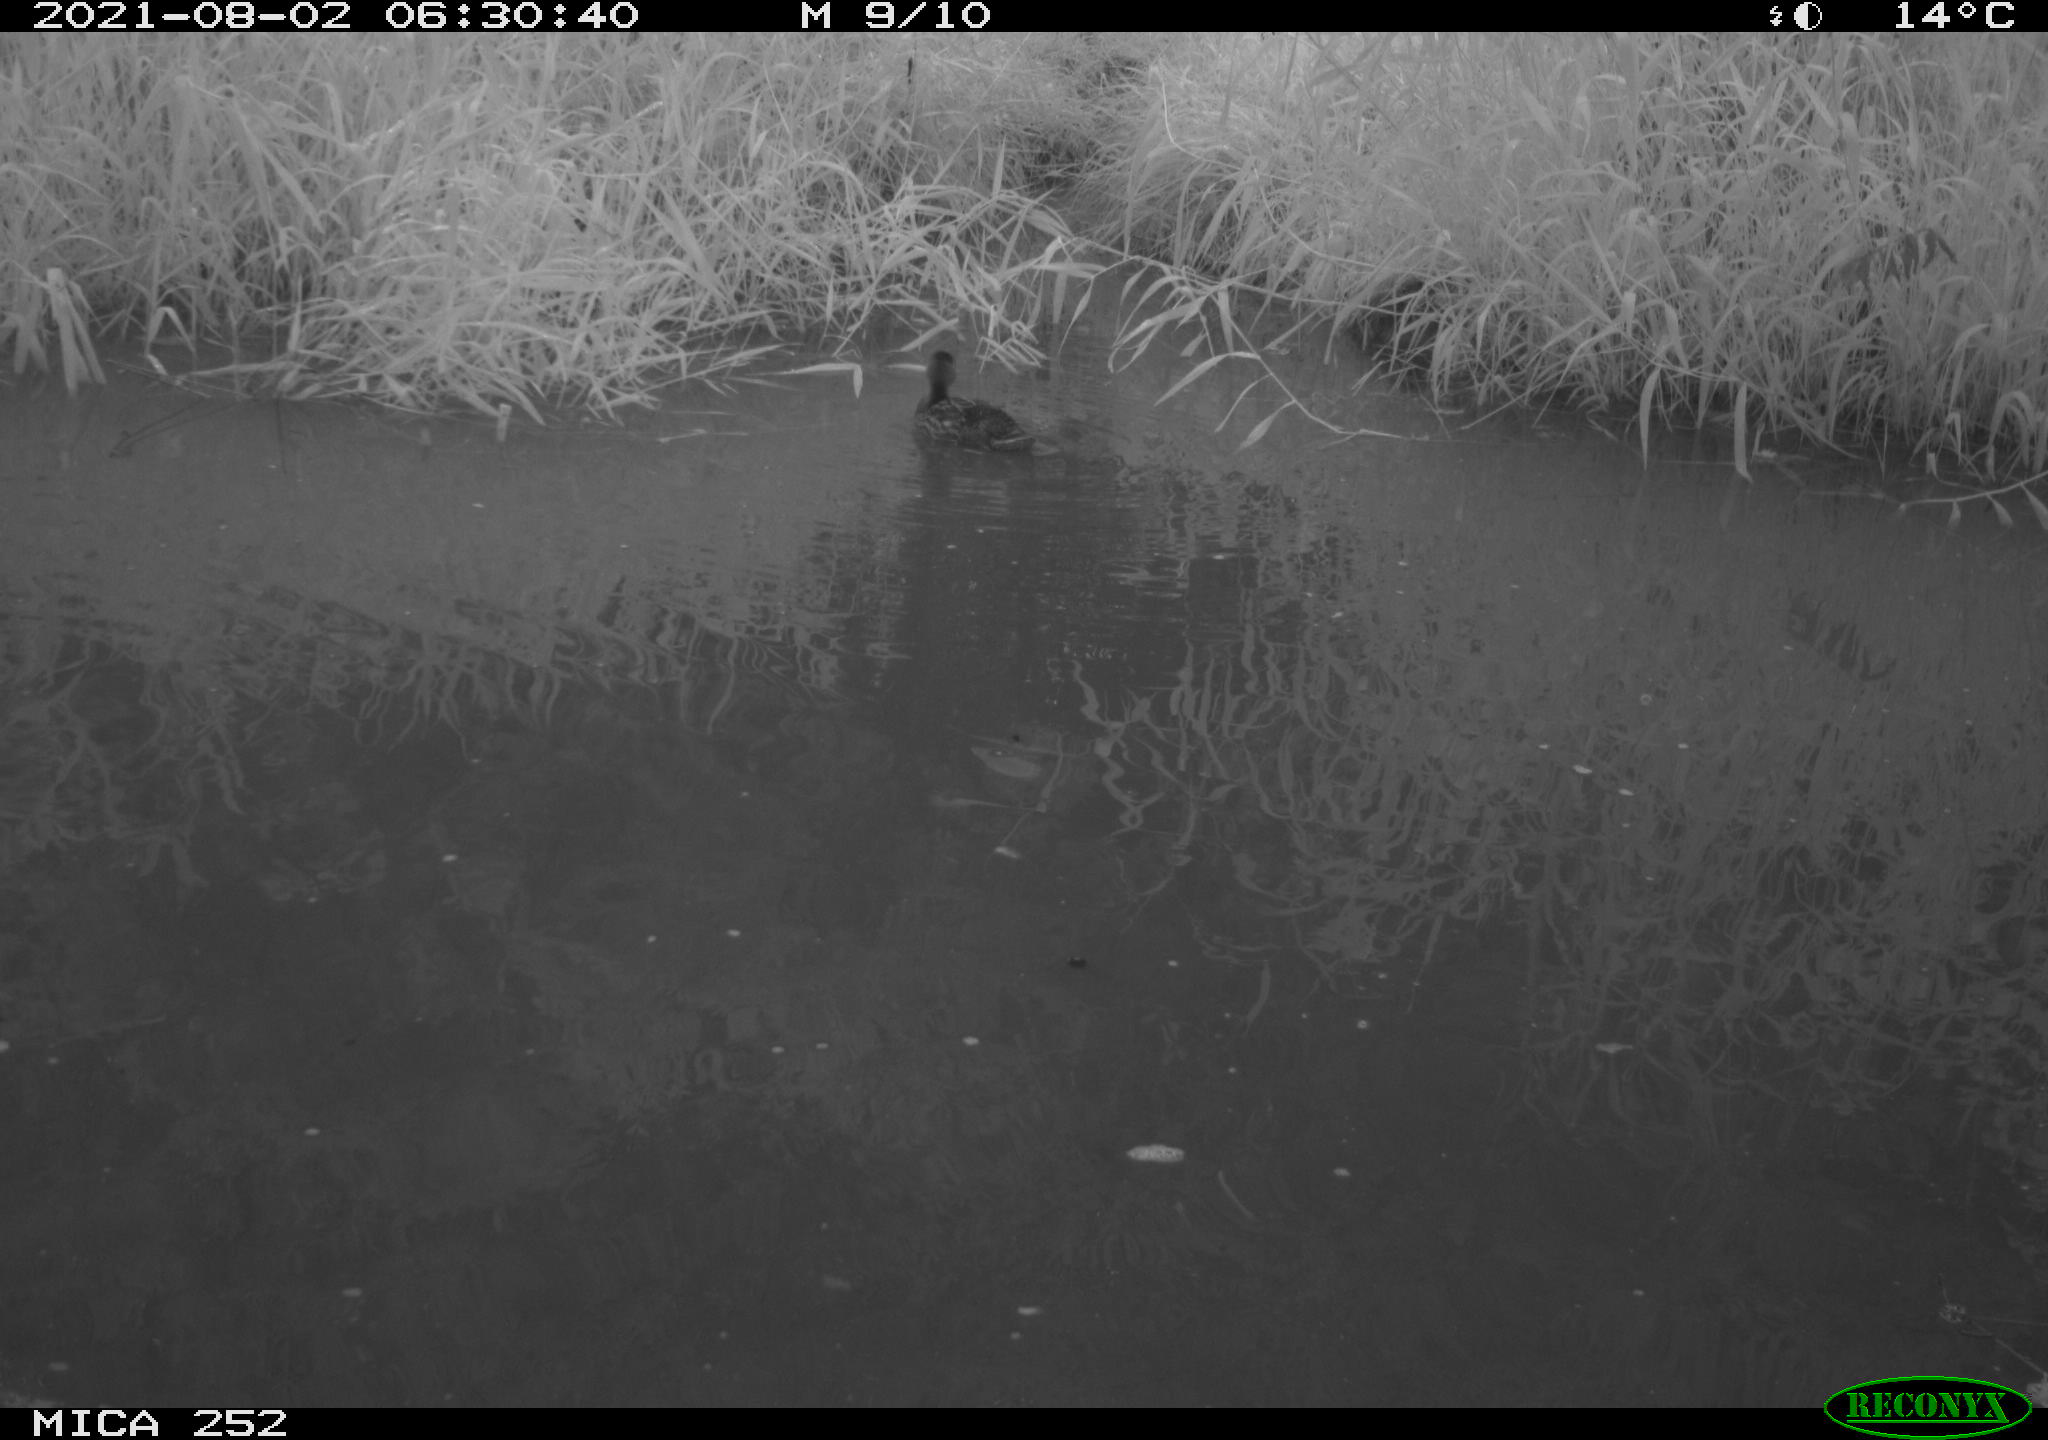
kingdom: Animalia
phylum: Chordata
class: Aves
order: Podicipediformes
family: Podicipedidae
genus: Tachybaptus
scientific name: Tachybaptus ruficollis
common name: Little grebe
